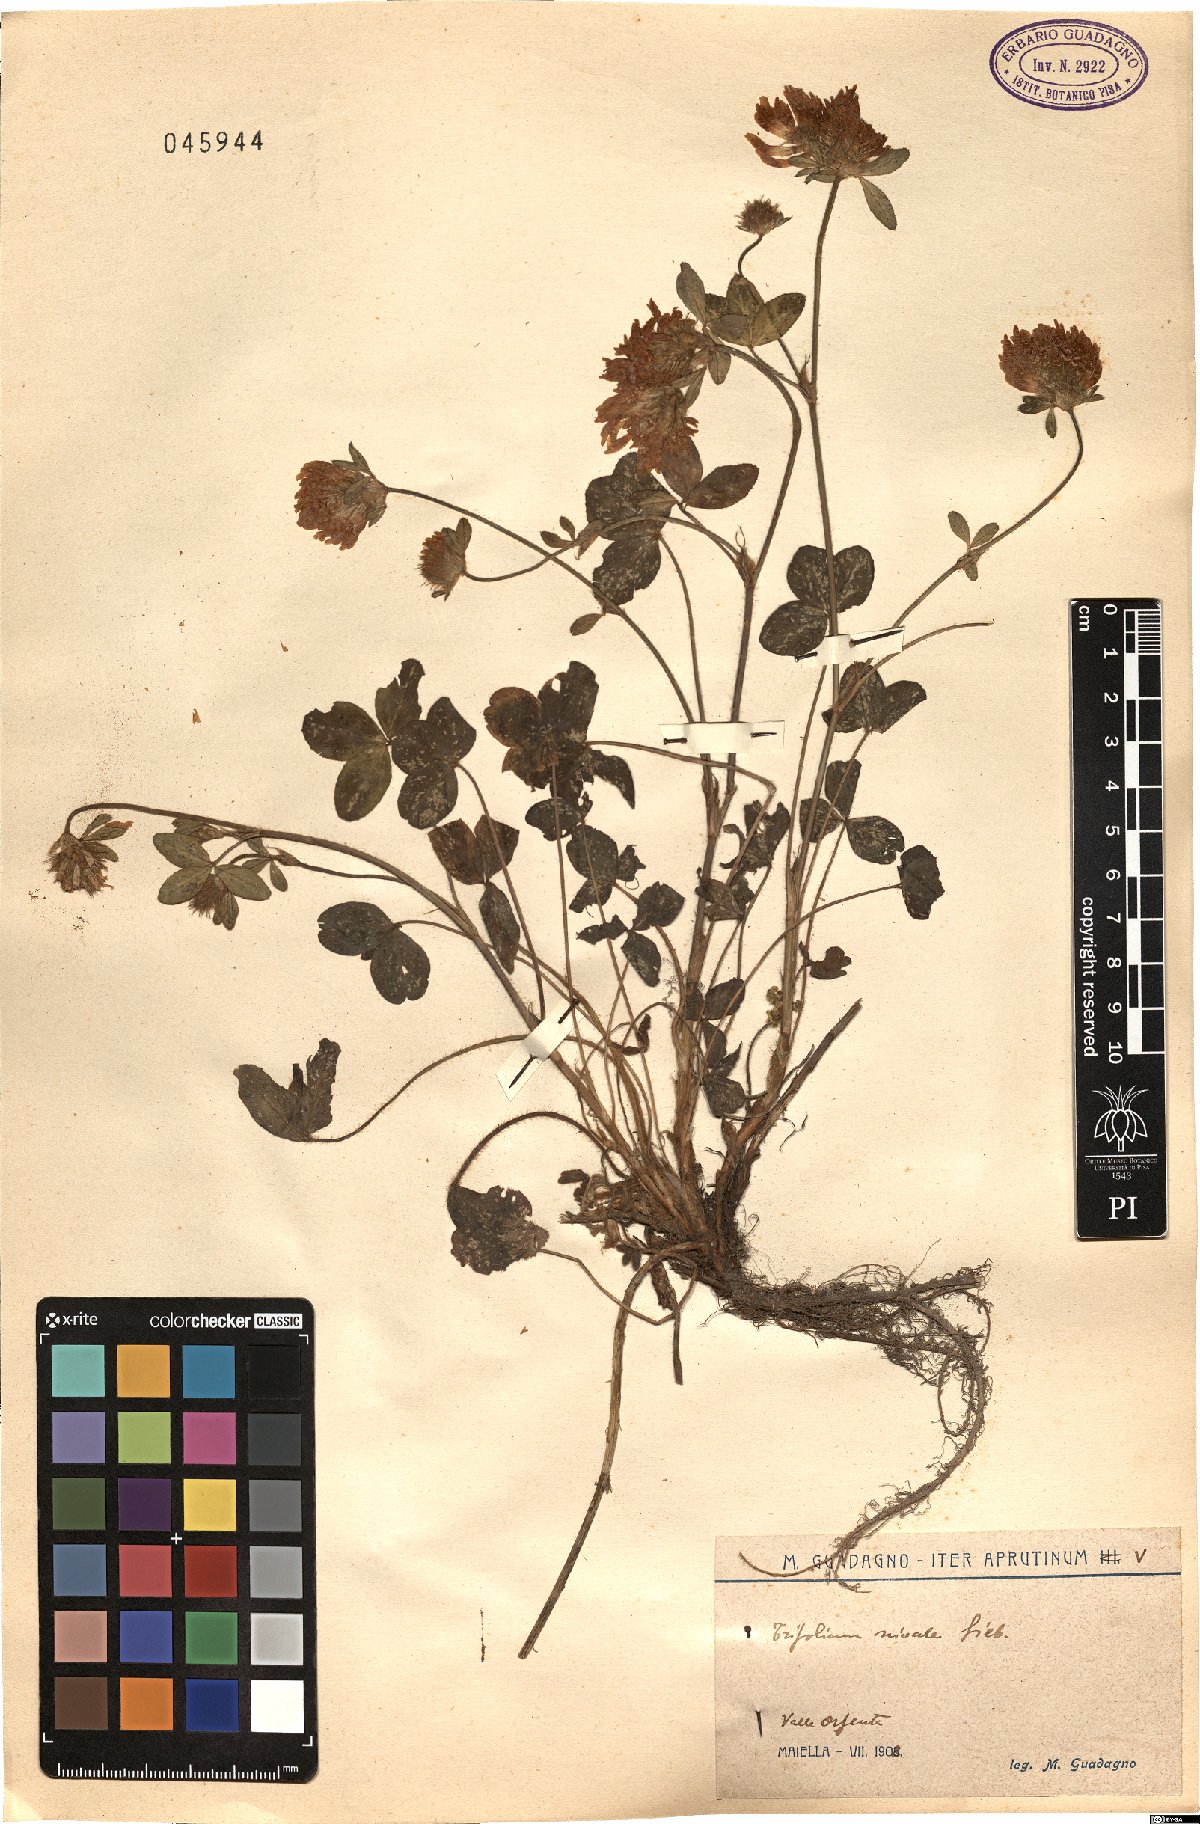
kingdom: Plantae
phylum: Tracheophyta
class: Magnoliopsida
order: Fabales
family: Fabaceae
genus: Trifolium
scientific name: Trifolium pratense
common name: Red clover
